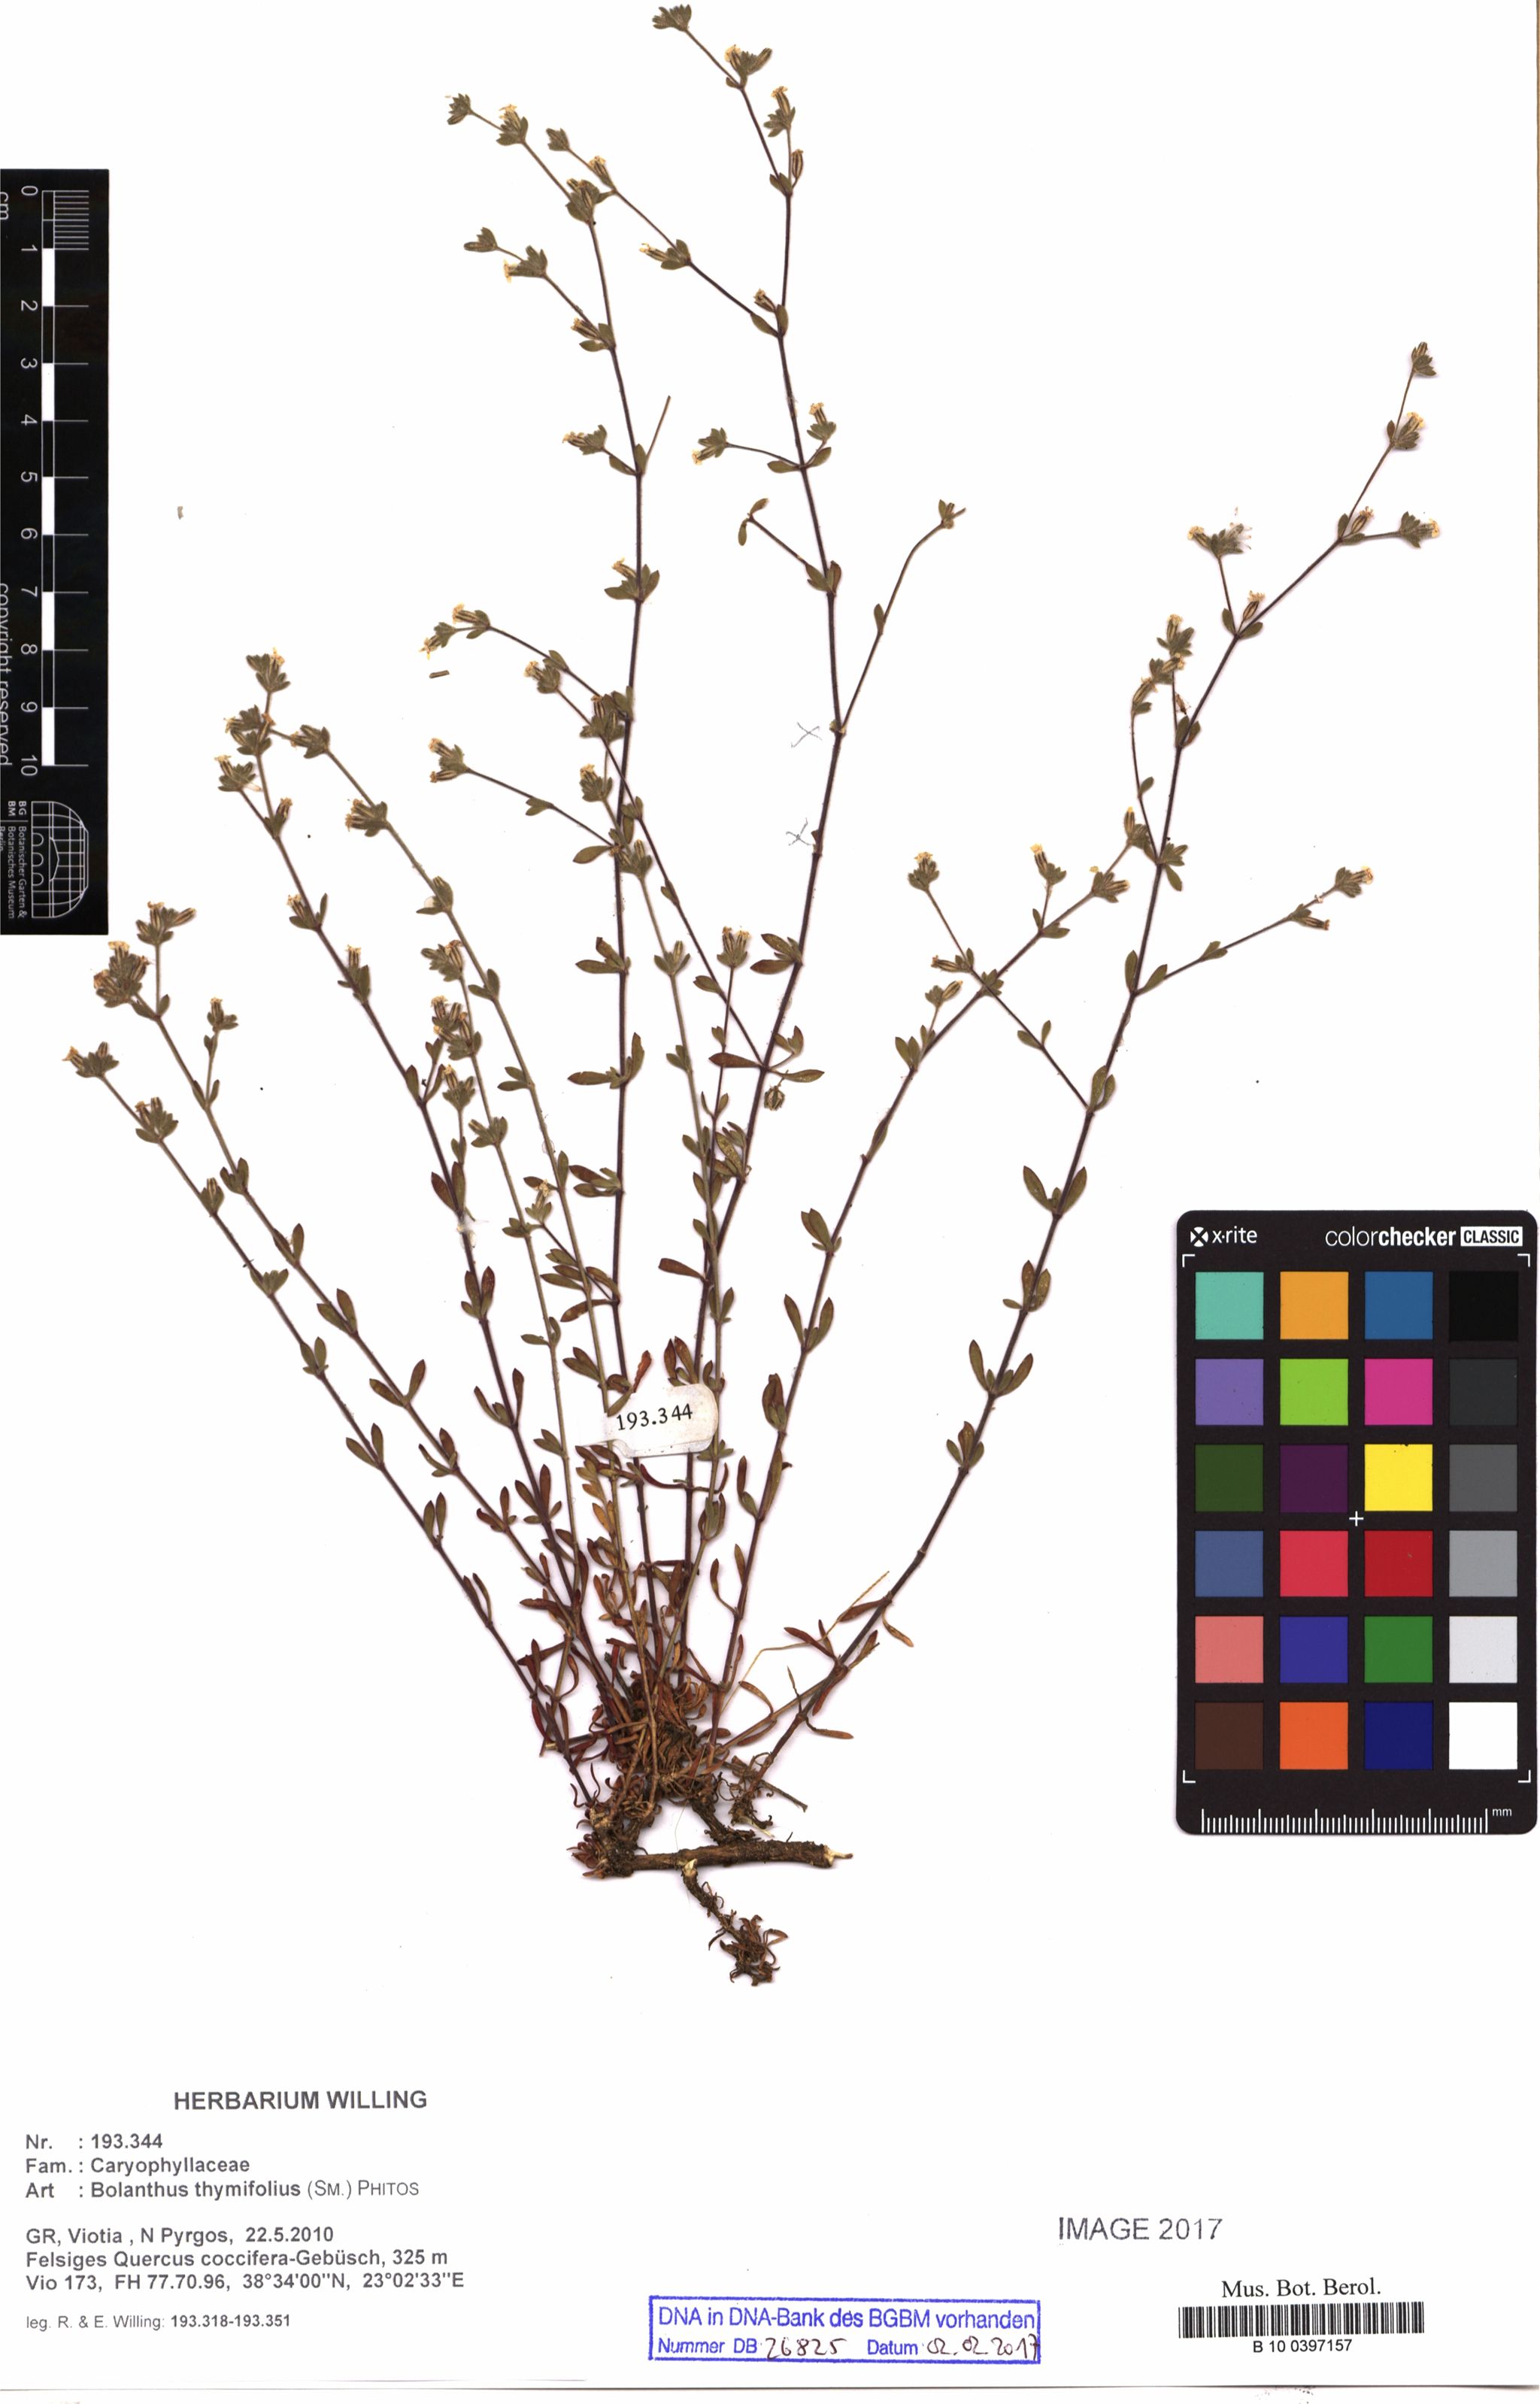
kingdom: Plantae
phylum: Tracheophyta
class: Magnoliopsida
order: Caryophyllales
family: Caryophyllaceae
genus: Graecobolanthus
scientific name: Graecobolanthus thymifolius
